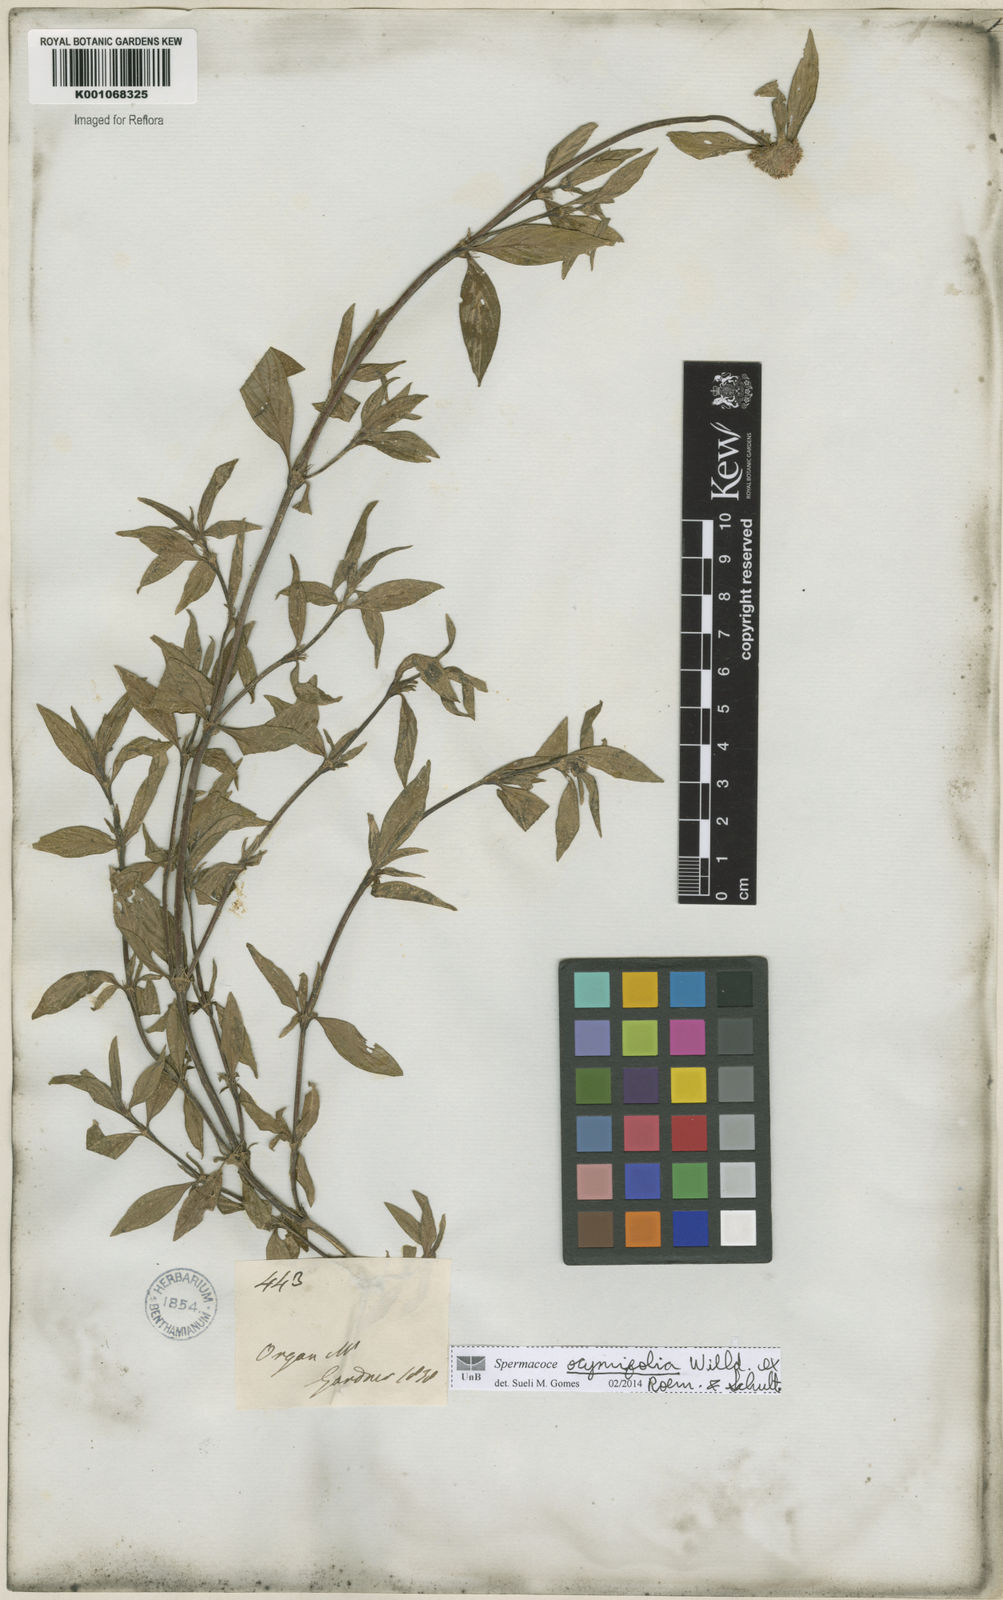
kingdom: Plantae
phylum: Tracheophyta
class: Magnoliopsida
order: Gentianales
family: Rubiaceae
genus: Spermacoce
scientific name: Spermacoce
